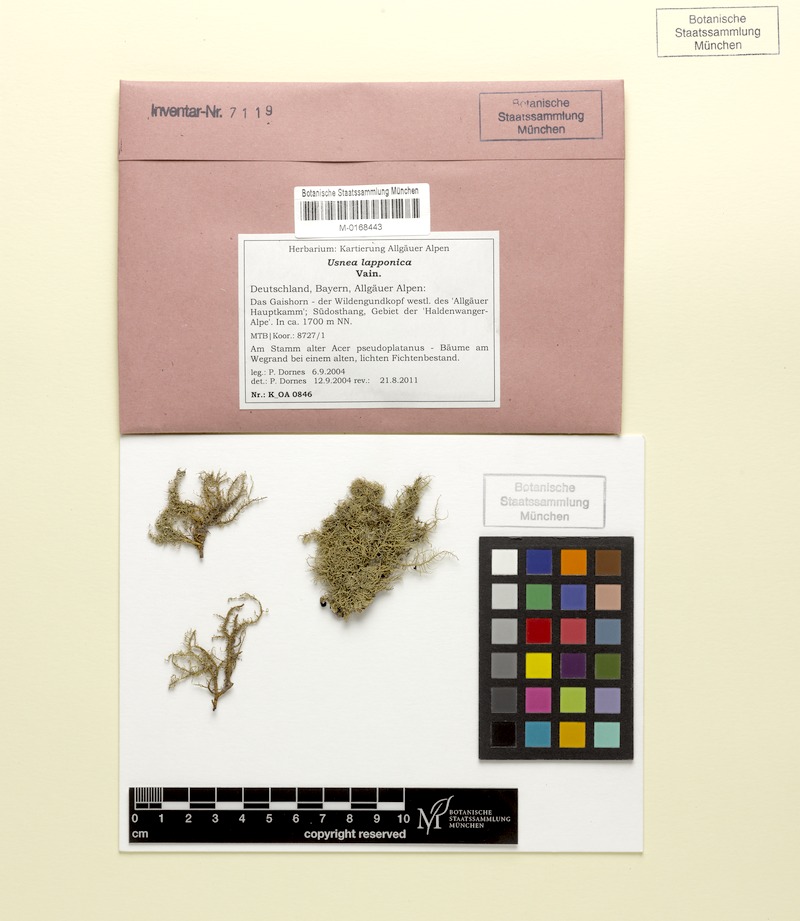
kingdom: Fungi
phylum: Ascomycota
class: Lecanoromycetes
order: Lecanorales
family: Parmeliaceae
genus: Usnea
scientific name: Usnea lapponica
